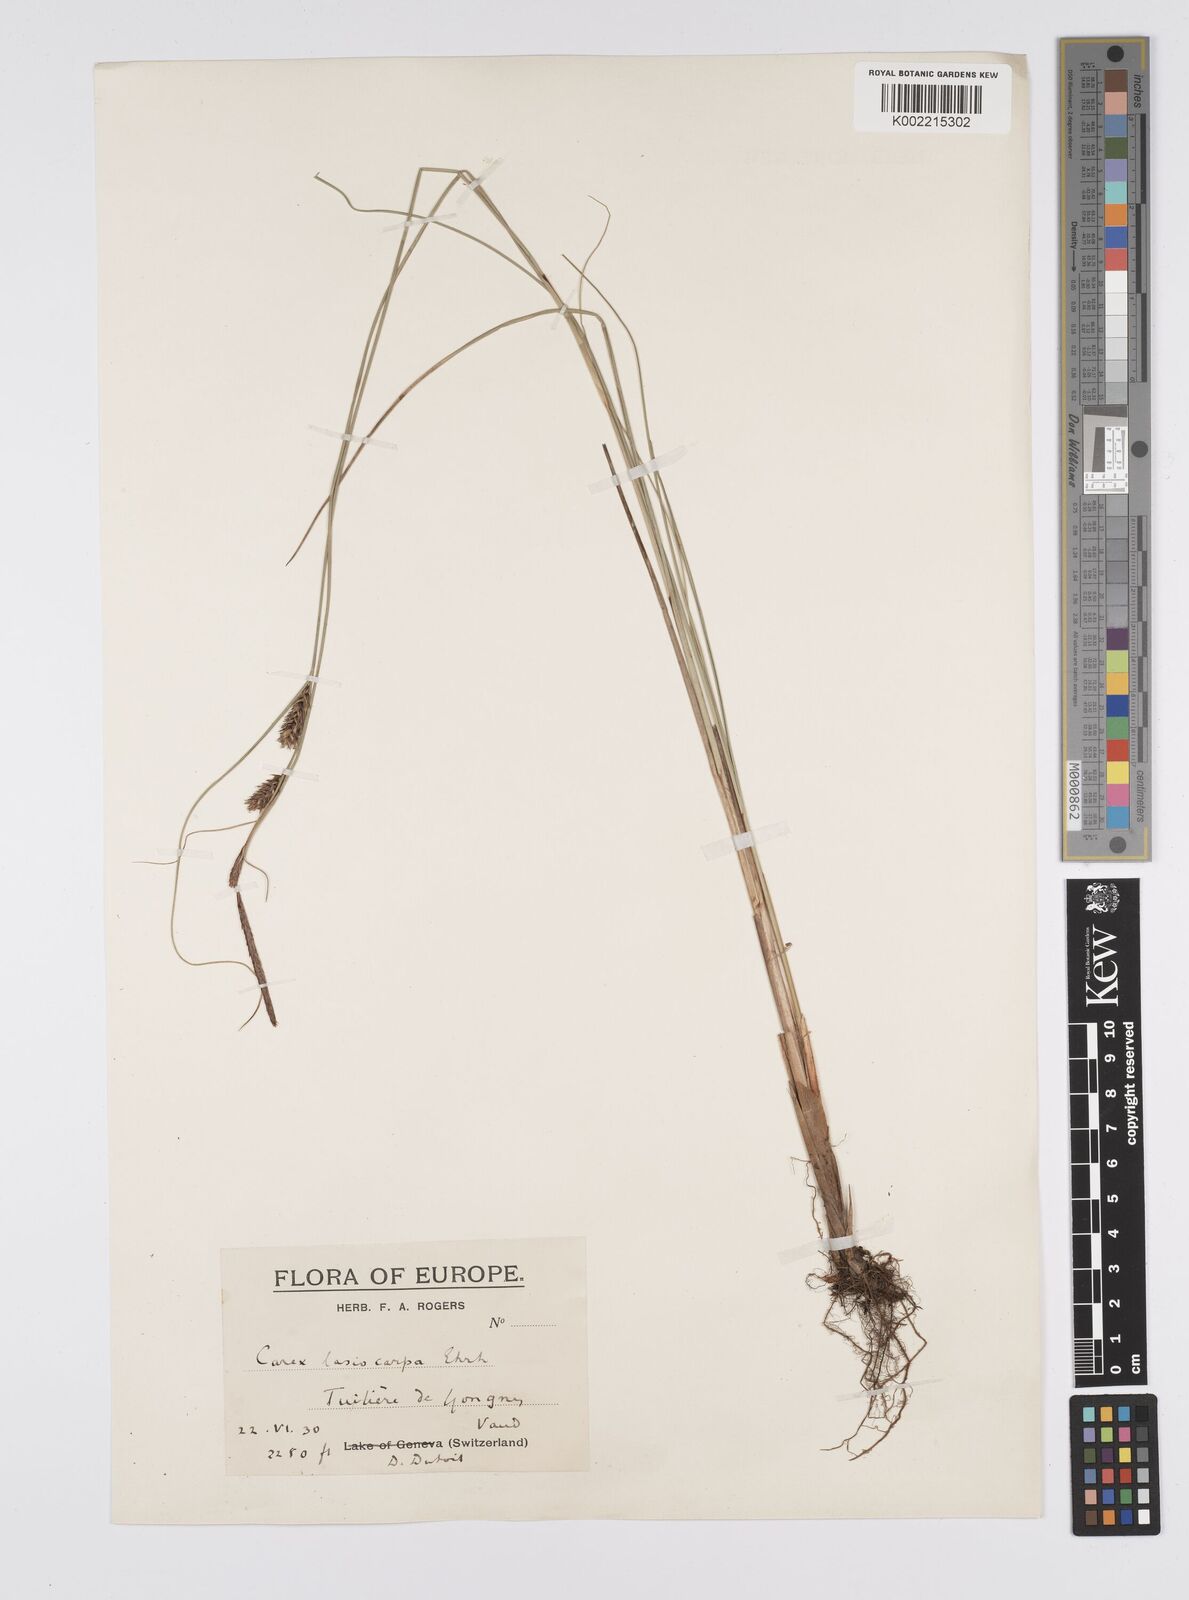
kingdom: Plantae
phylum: Tracheophyta
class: Liliopsida
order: Poales
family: Cyperaceae
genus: Carex
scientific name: Carex lasiocarpa
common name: Slender sedge
